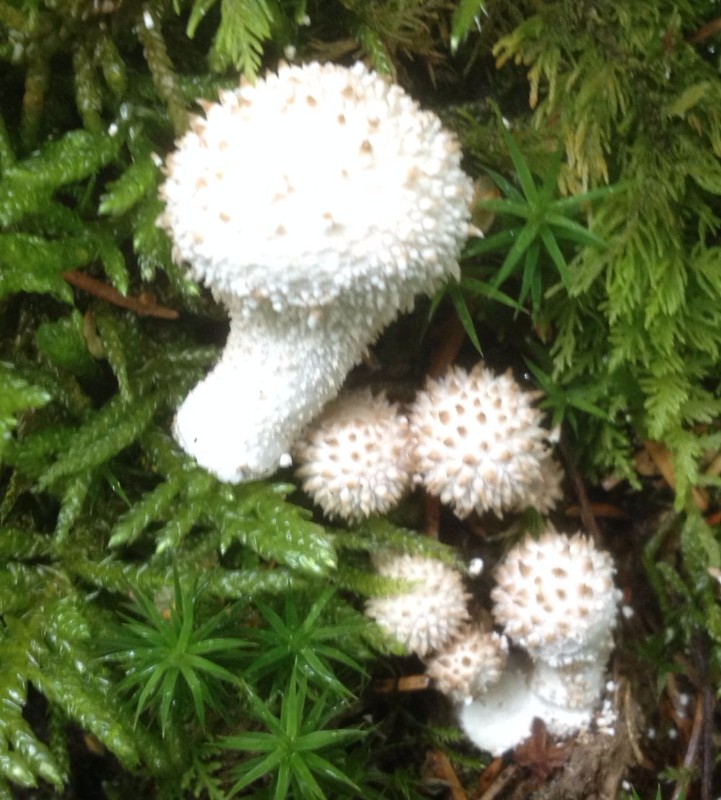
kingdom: Fungi
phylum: Basidiomycota
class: Agaricomycetes
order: Agaricales
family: Lycoperdaceae
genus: Lycoperdon
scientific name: Lycoperdon perlatum
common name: krystal-støvbold
